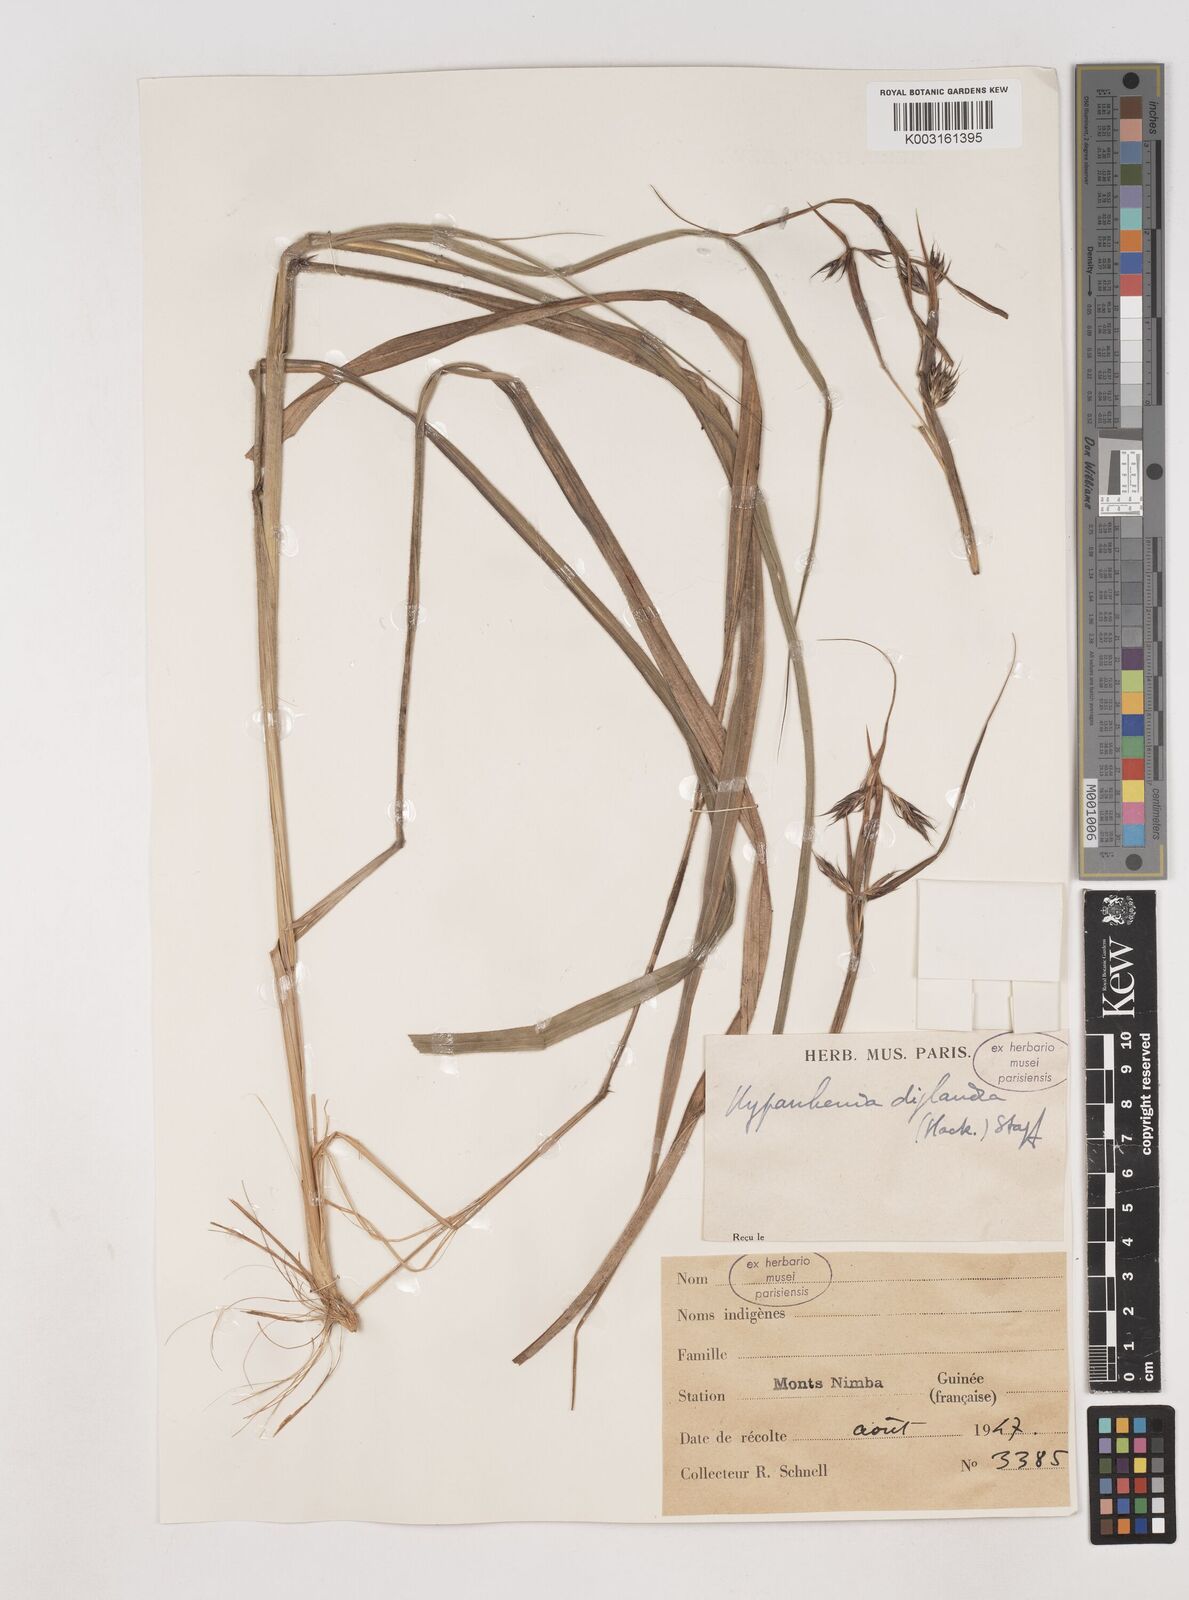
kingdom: Plantae
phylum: Tracheophyta
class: Liliopsida
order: Poales
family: Poaceae
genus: Hyparrhenia
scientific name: Hyparrhenia diplandra
